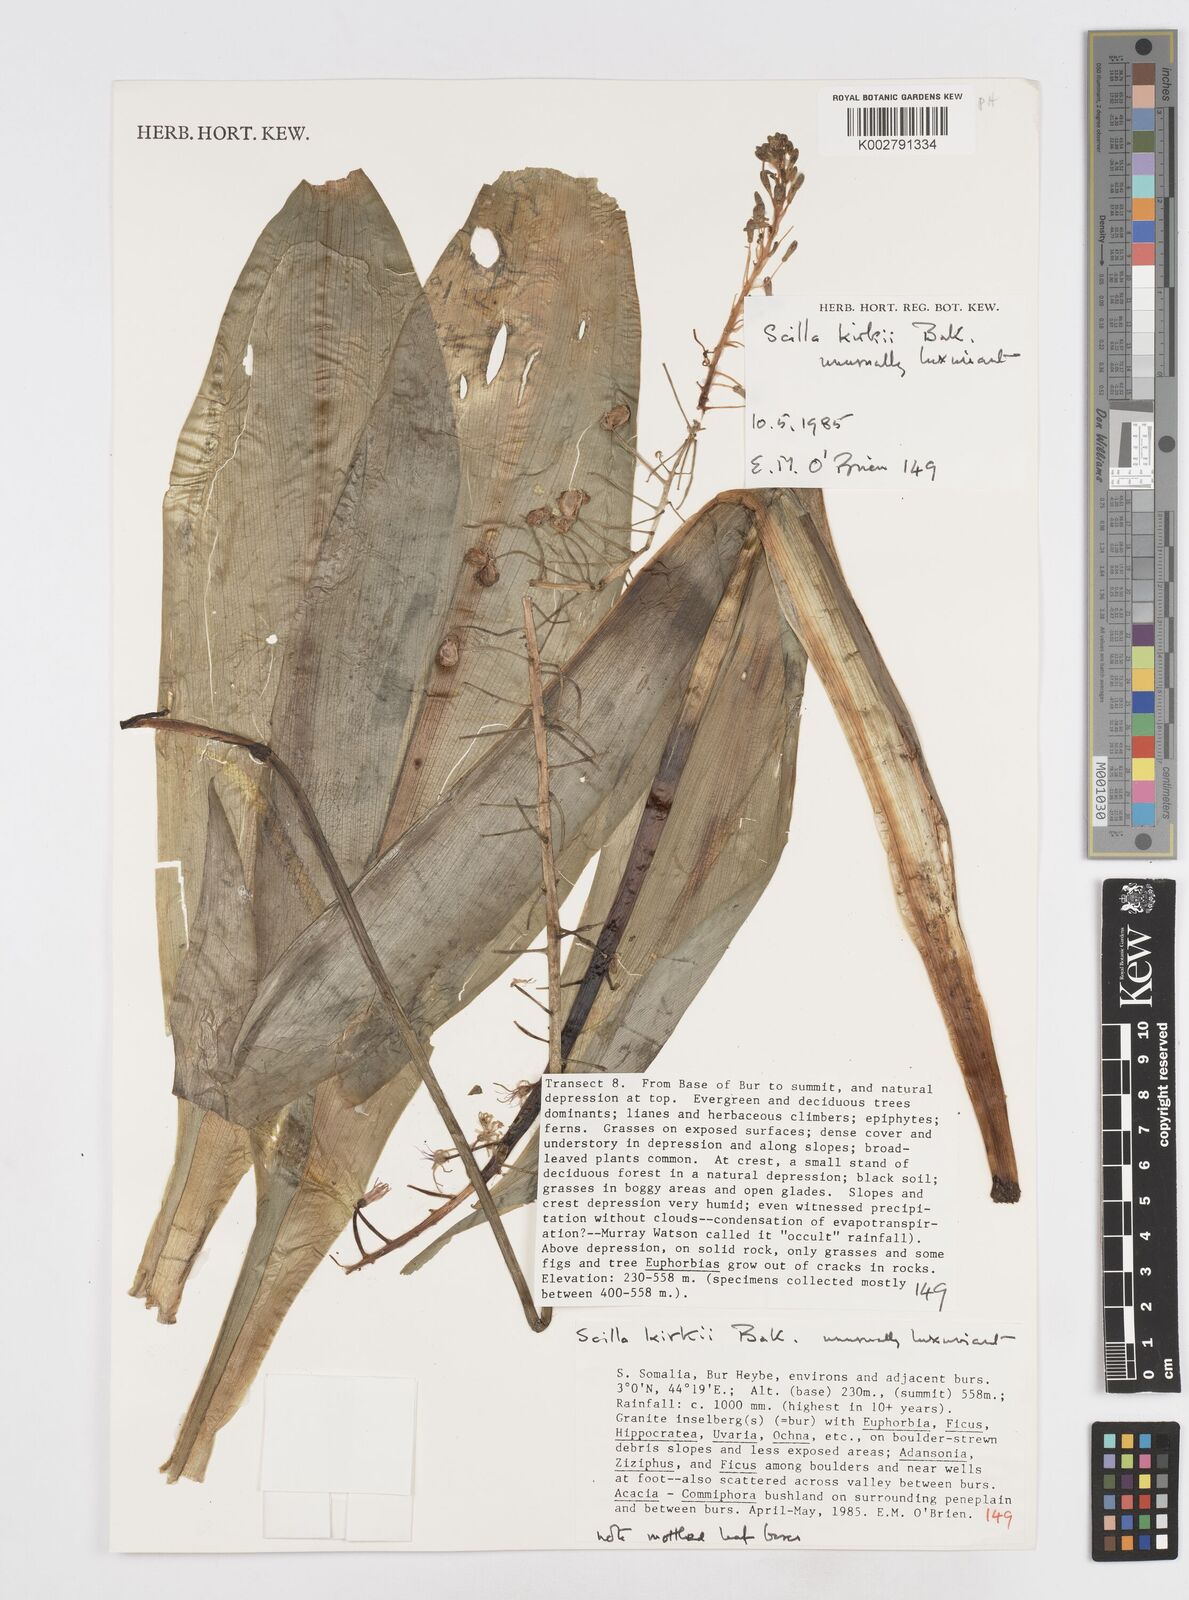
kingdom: Plantae
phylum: Tracheophyta
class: Liliopsida
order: Asparagales
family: Asparagaceae
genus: Ledebouria
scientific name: Ledebouria kirkii
